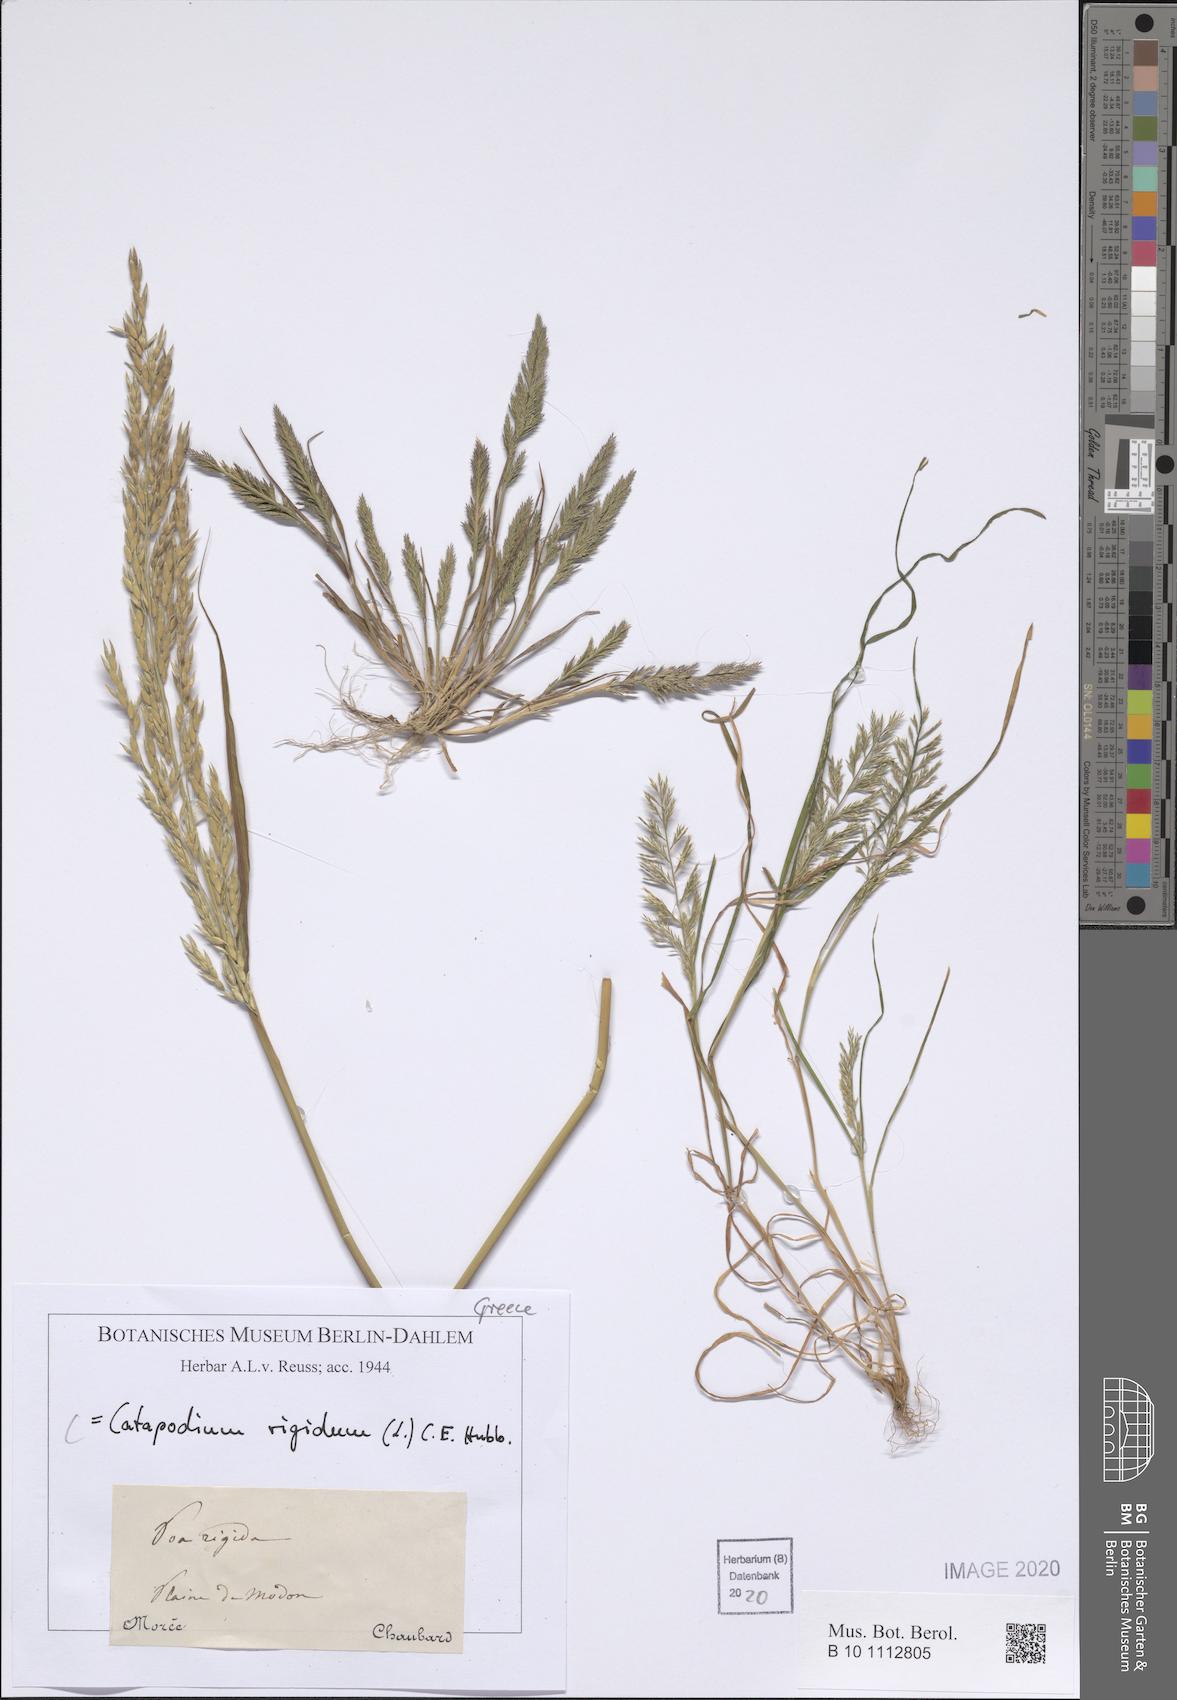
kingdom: Plantae
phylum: Tracheophyta
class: Liliopsida
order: Poales
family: Poaceae
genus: Catapodium
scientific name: Catapodium rigidum
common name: Fern-grass
